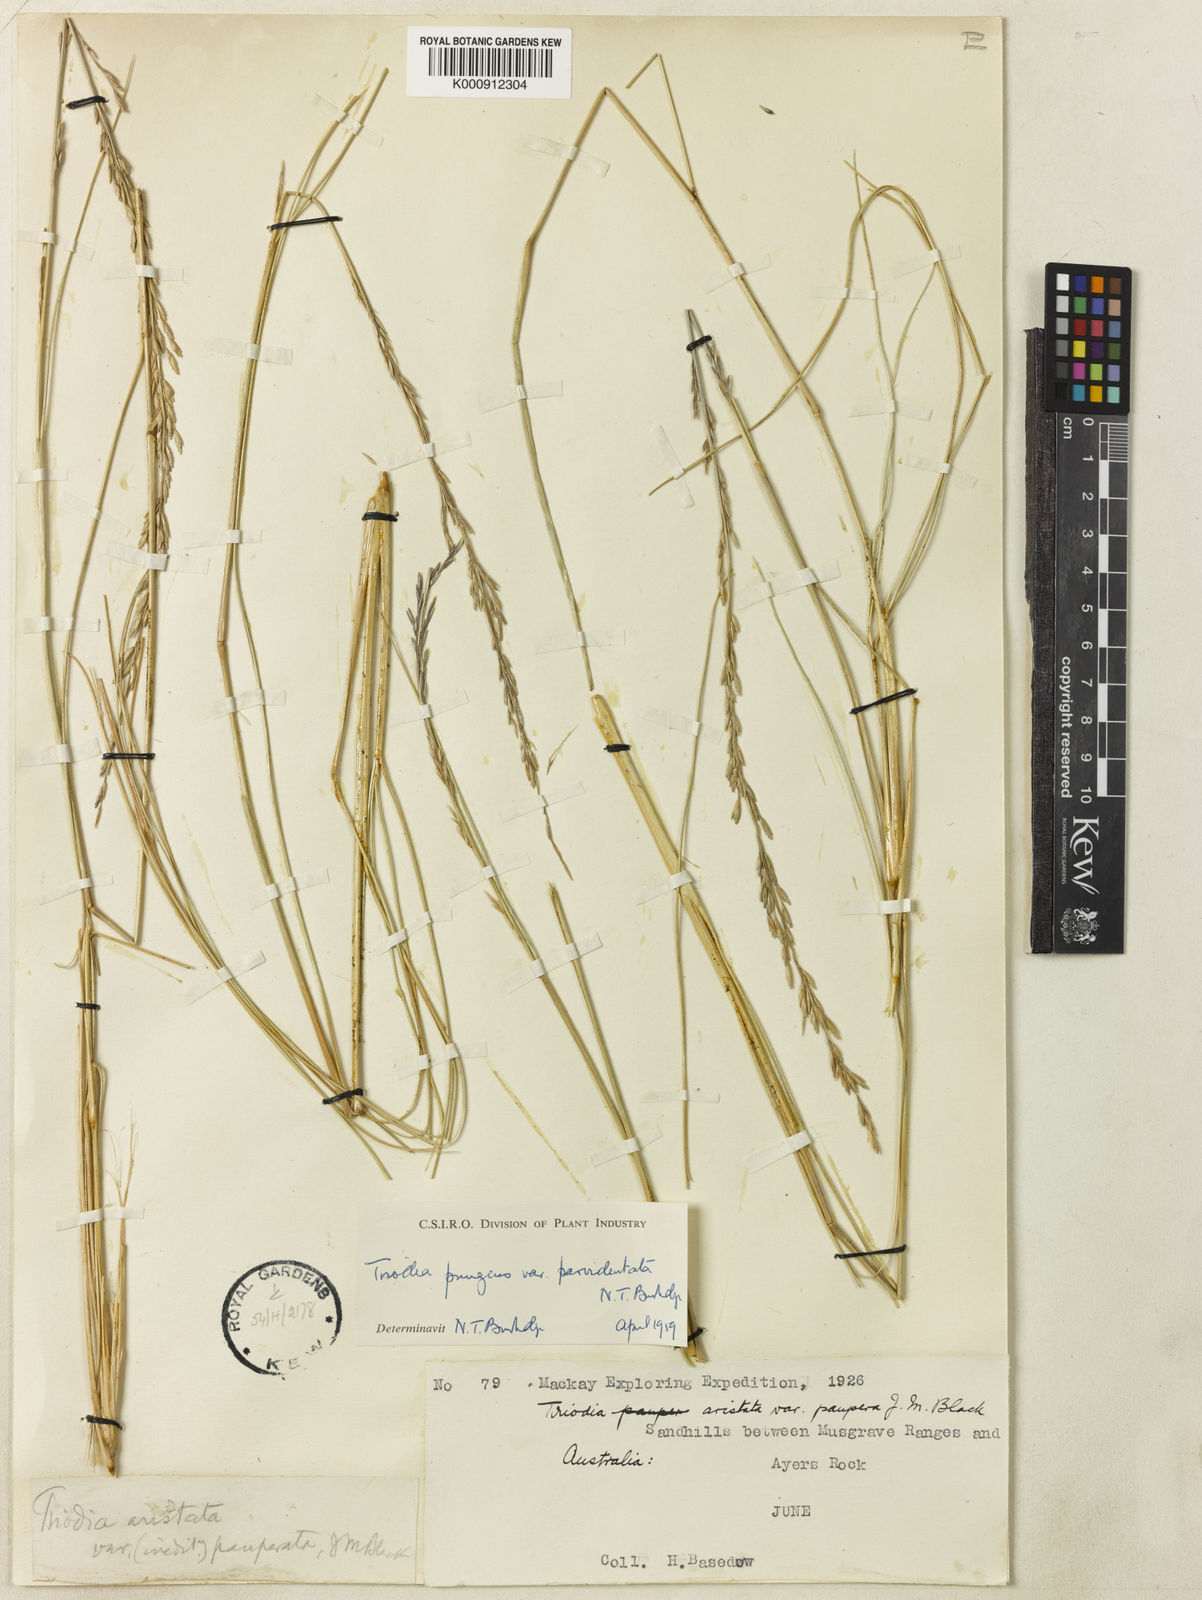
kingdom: Plantae
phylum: Tracheophyta
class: Liliopsida
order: Poales
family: Poaceae
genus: Triodia
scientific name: Triodia pungens
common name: Soft spinifex
